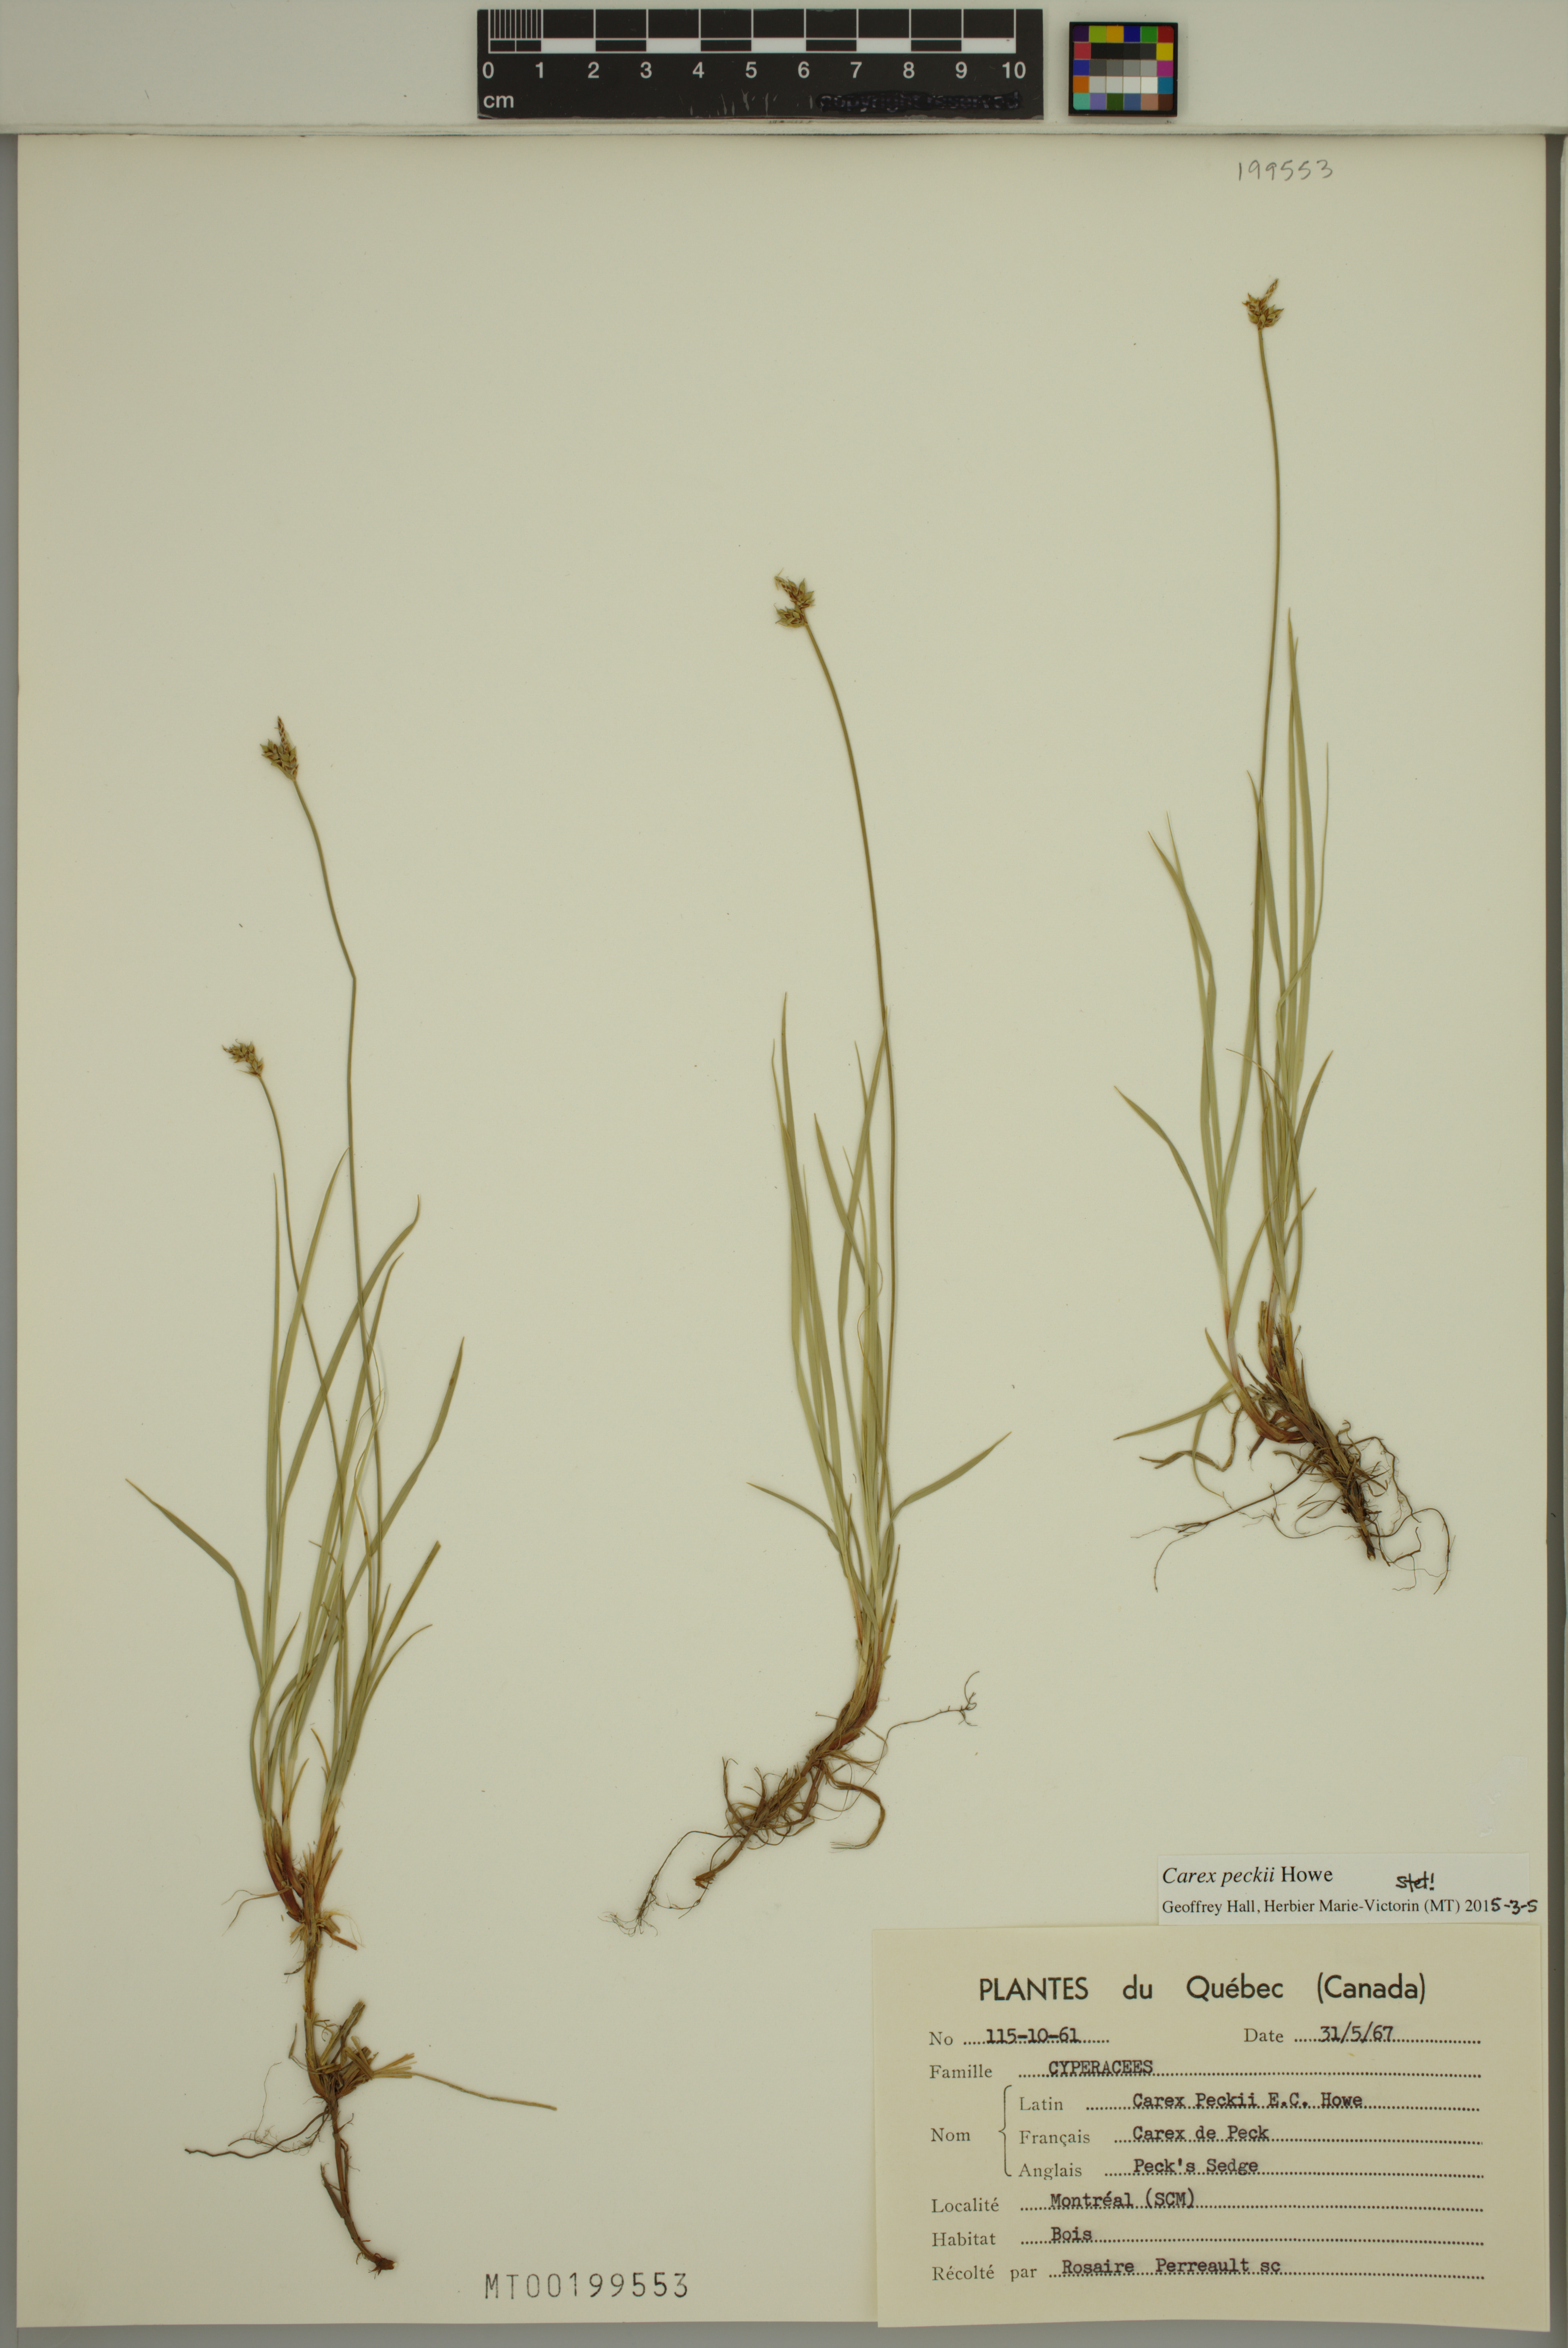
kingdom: Plantae
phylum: Tracheophyta
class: Liliopsida
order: Poales
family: Cyperaceae
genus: Carex
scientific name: Carex peckii
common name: Peck's oak sedge
